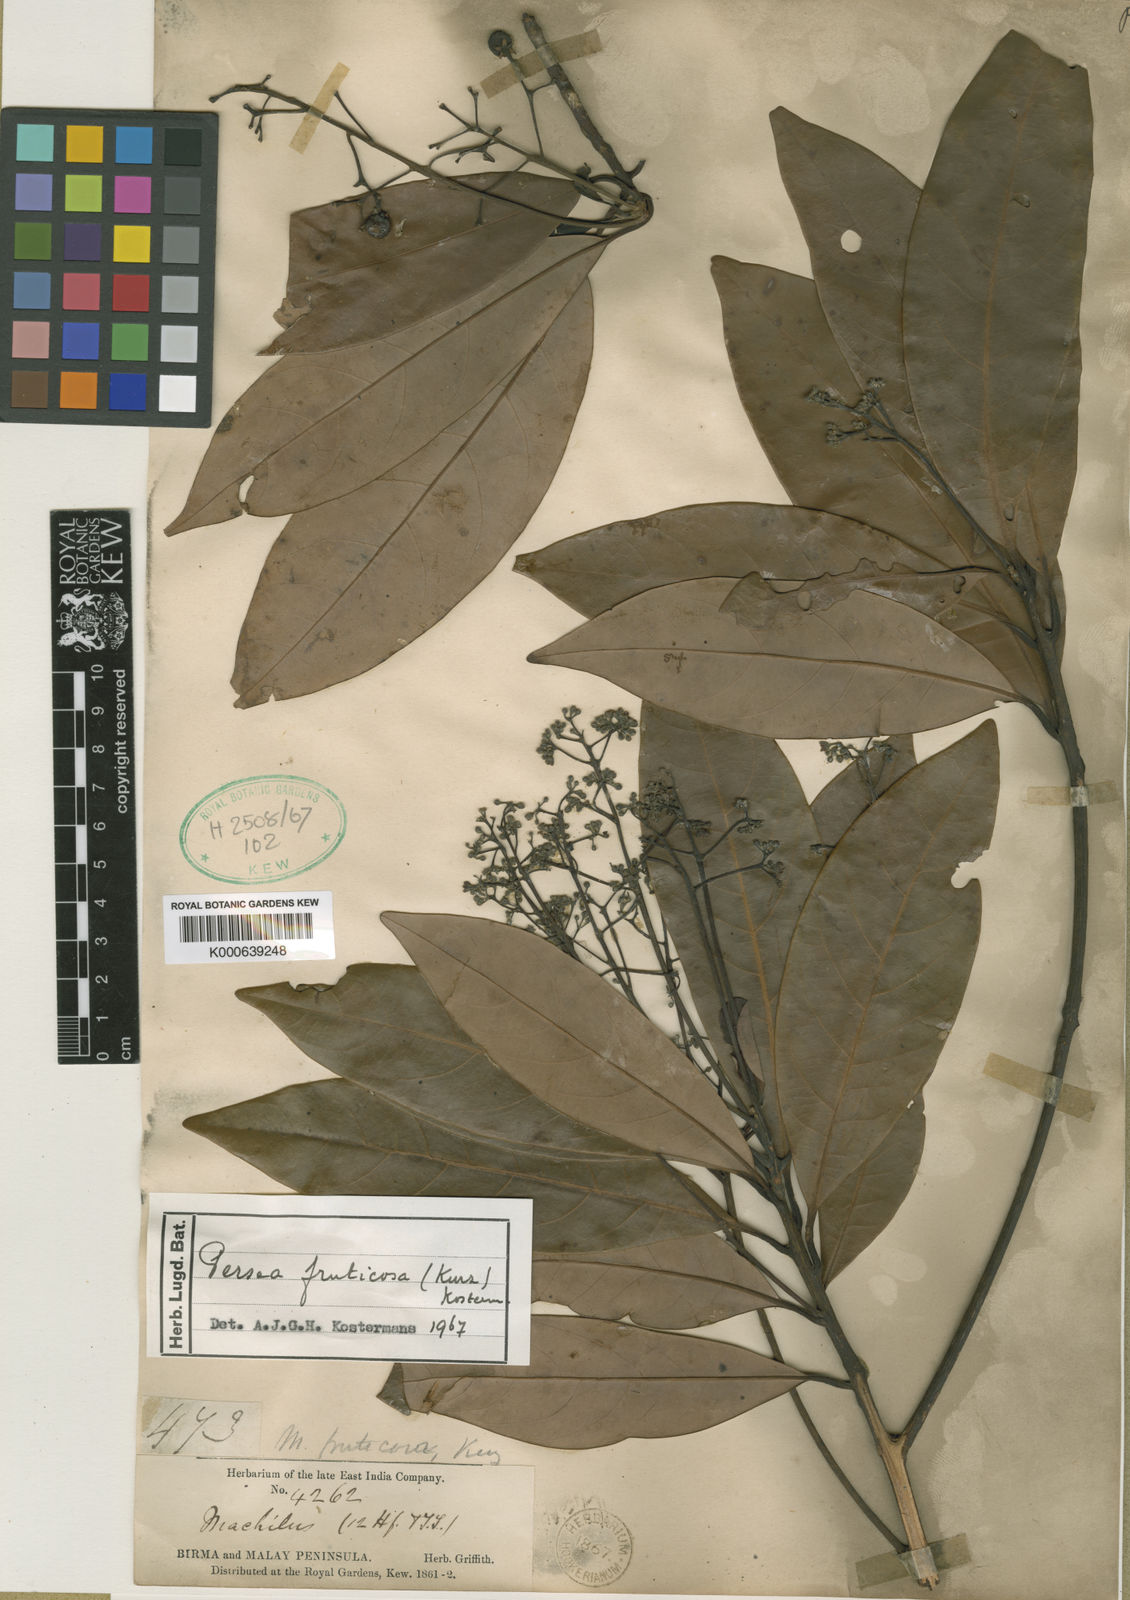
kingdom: Plantae
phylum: Tracheophyta
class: Magnoliopsida
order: Laurales
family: Lauraceae
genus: Machilus
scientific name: Machilus fruticosa
